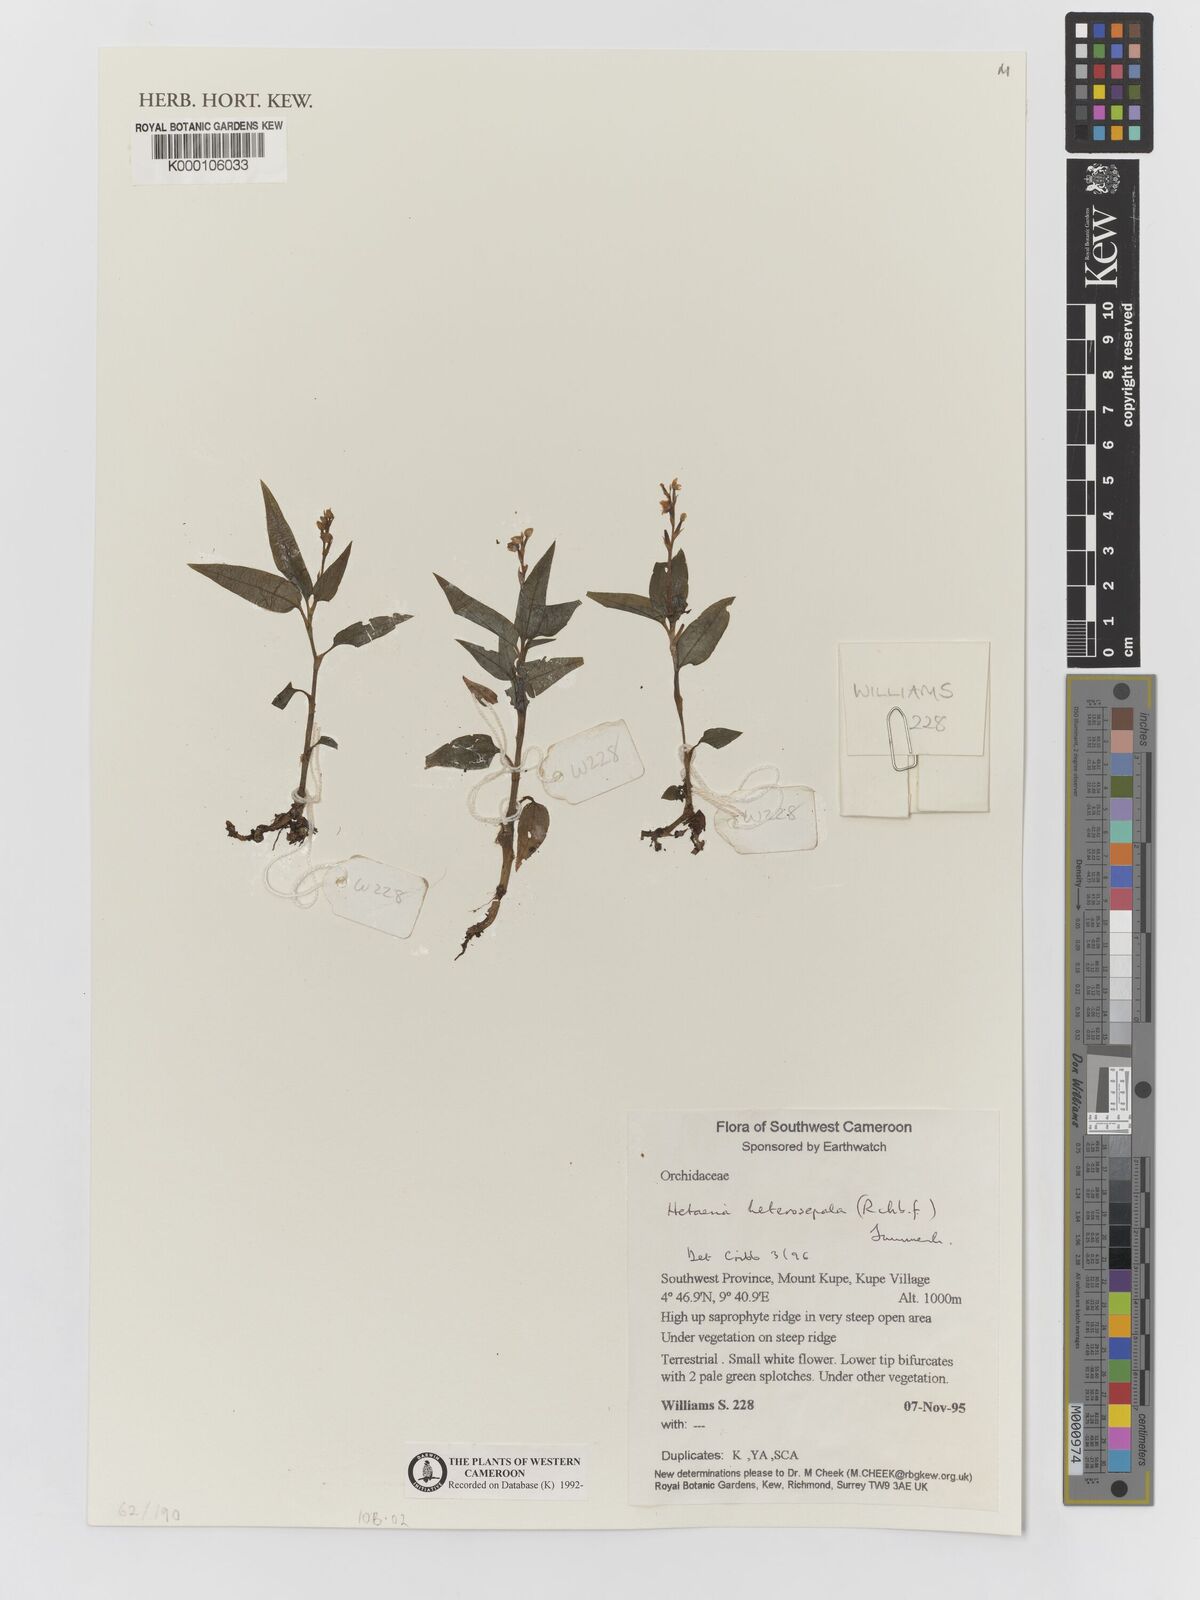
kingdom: Plantae
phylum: Tracheophyta
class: Liliopsida
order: Asparagales
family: Orchidaceae
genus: Hetaeria
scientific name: Hetaeria heterosepala
